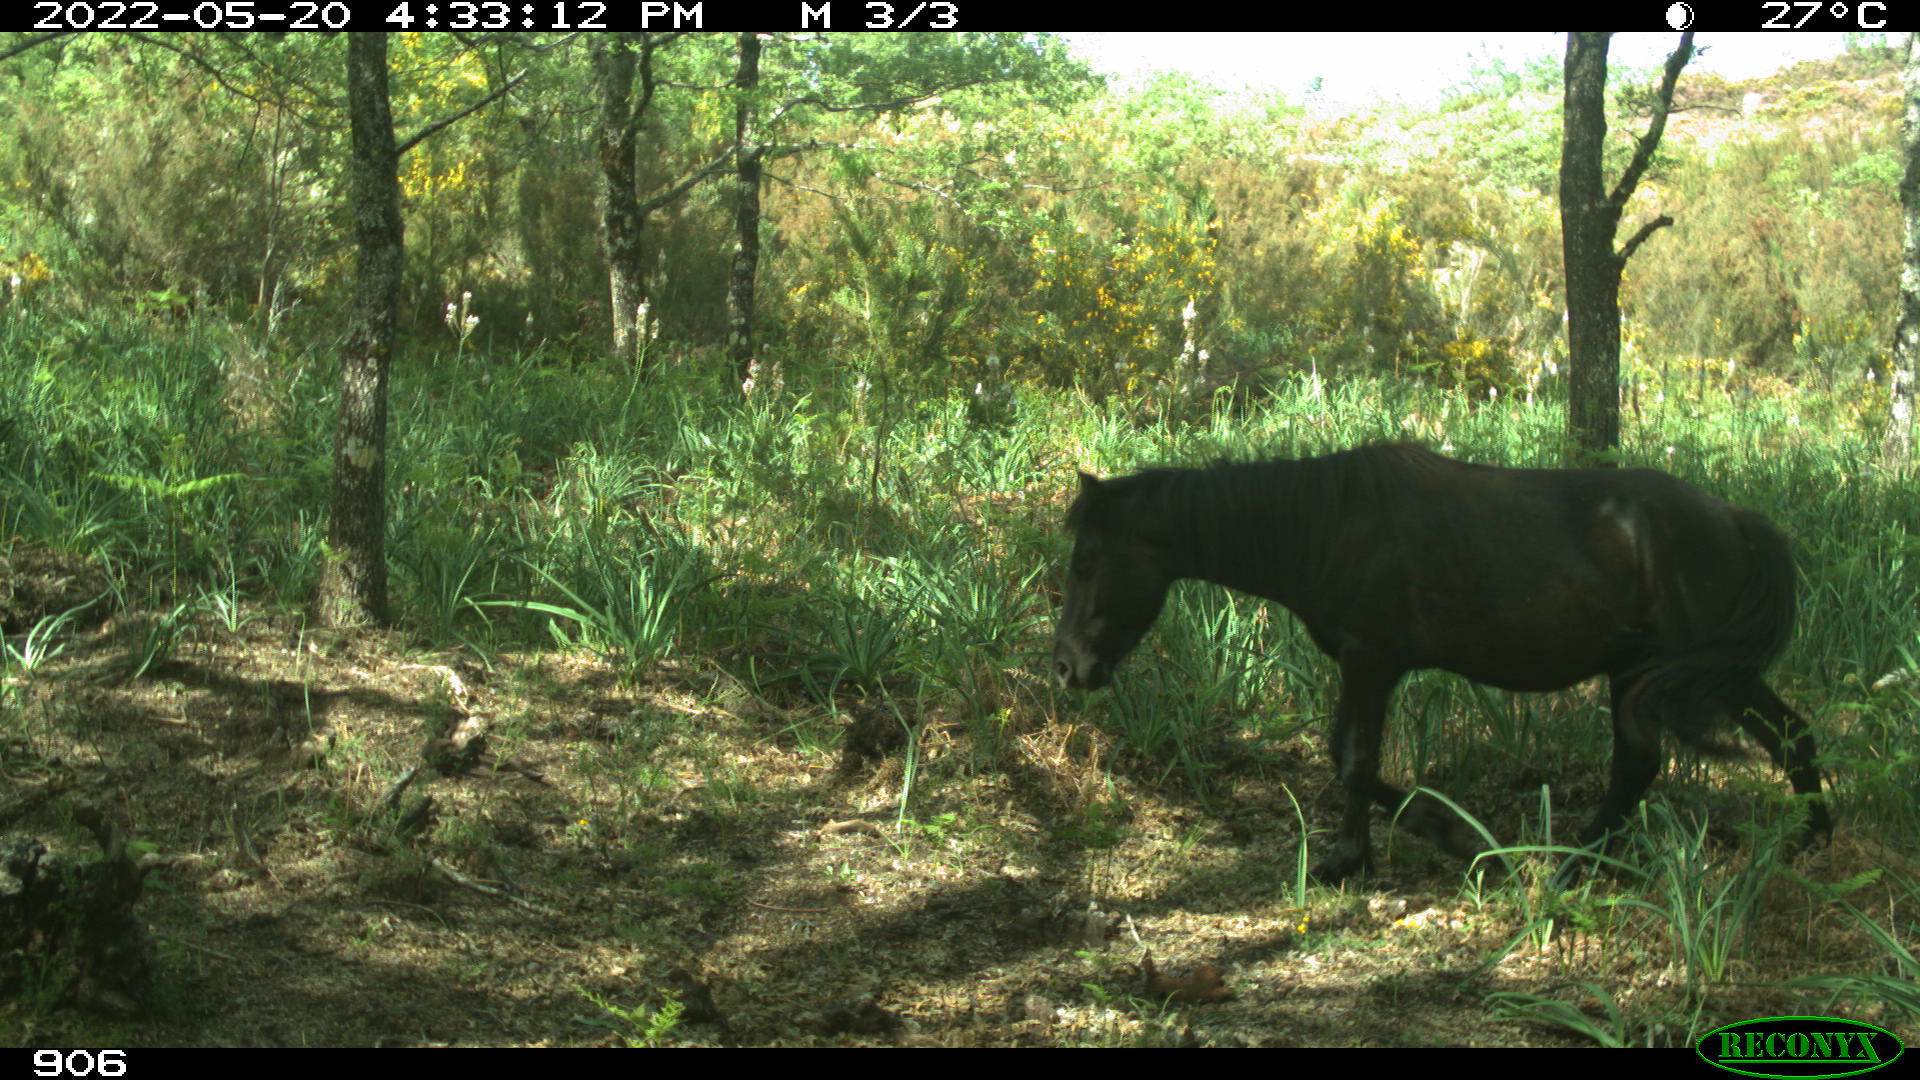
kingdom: Animalia
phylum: Chordata
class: Mammalia
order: Perissodactyla
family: Equidae
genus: Equus
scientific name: Equus caballus
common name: Horse
